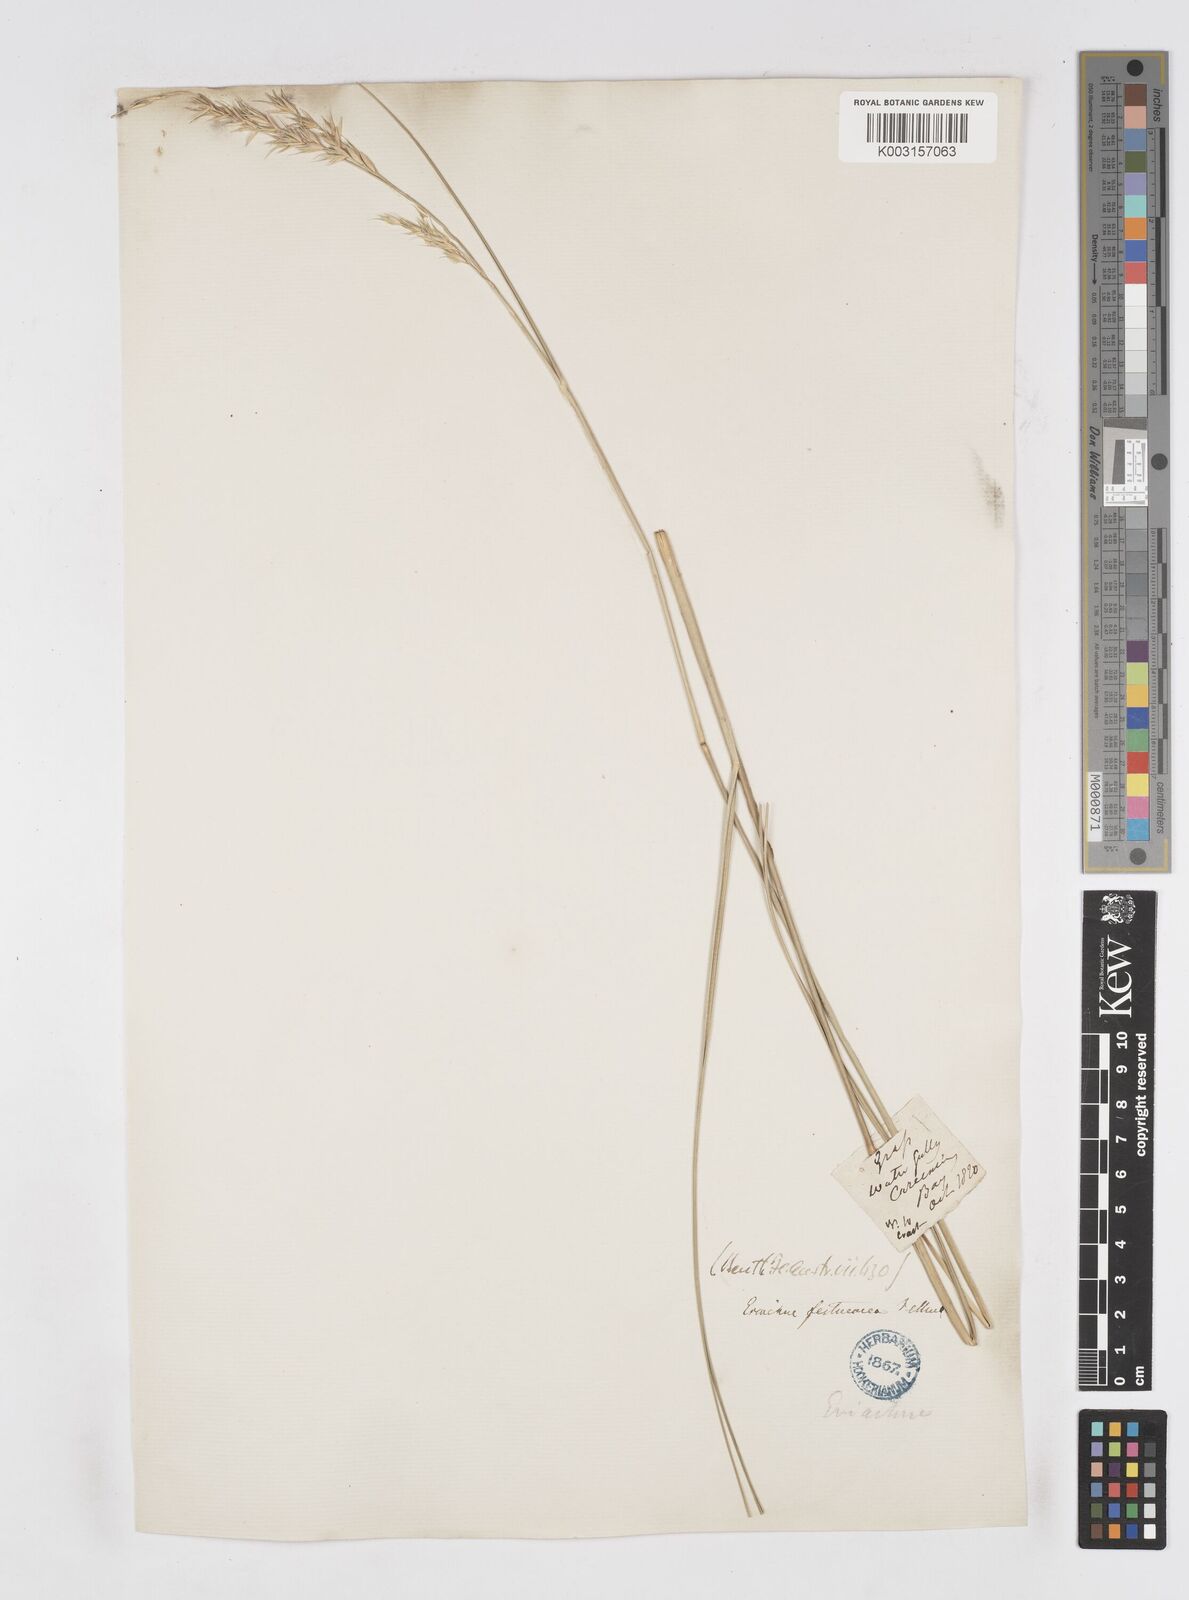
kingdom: Plantae
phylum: Tracheophyta
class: Liliopsida
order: Poales
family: Poaceae
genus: Eriachne
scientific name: Eriachne festucacea
